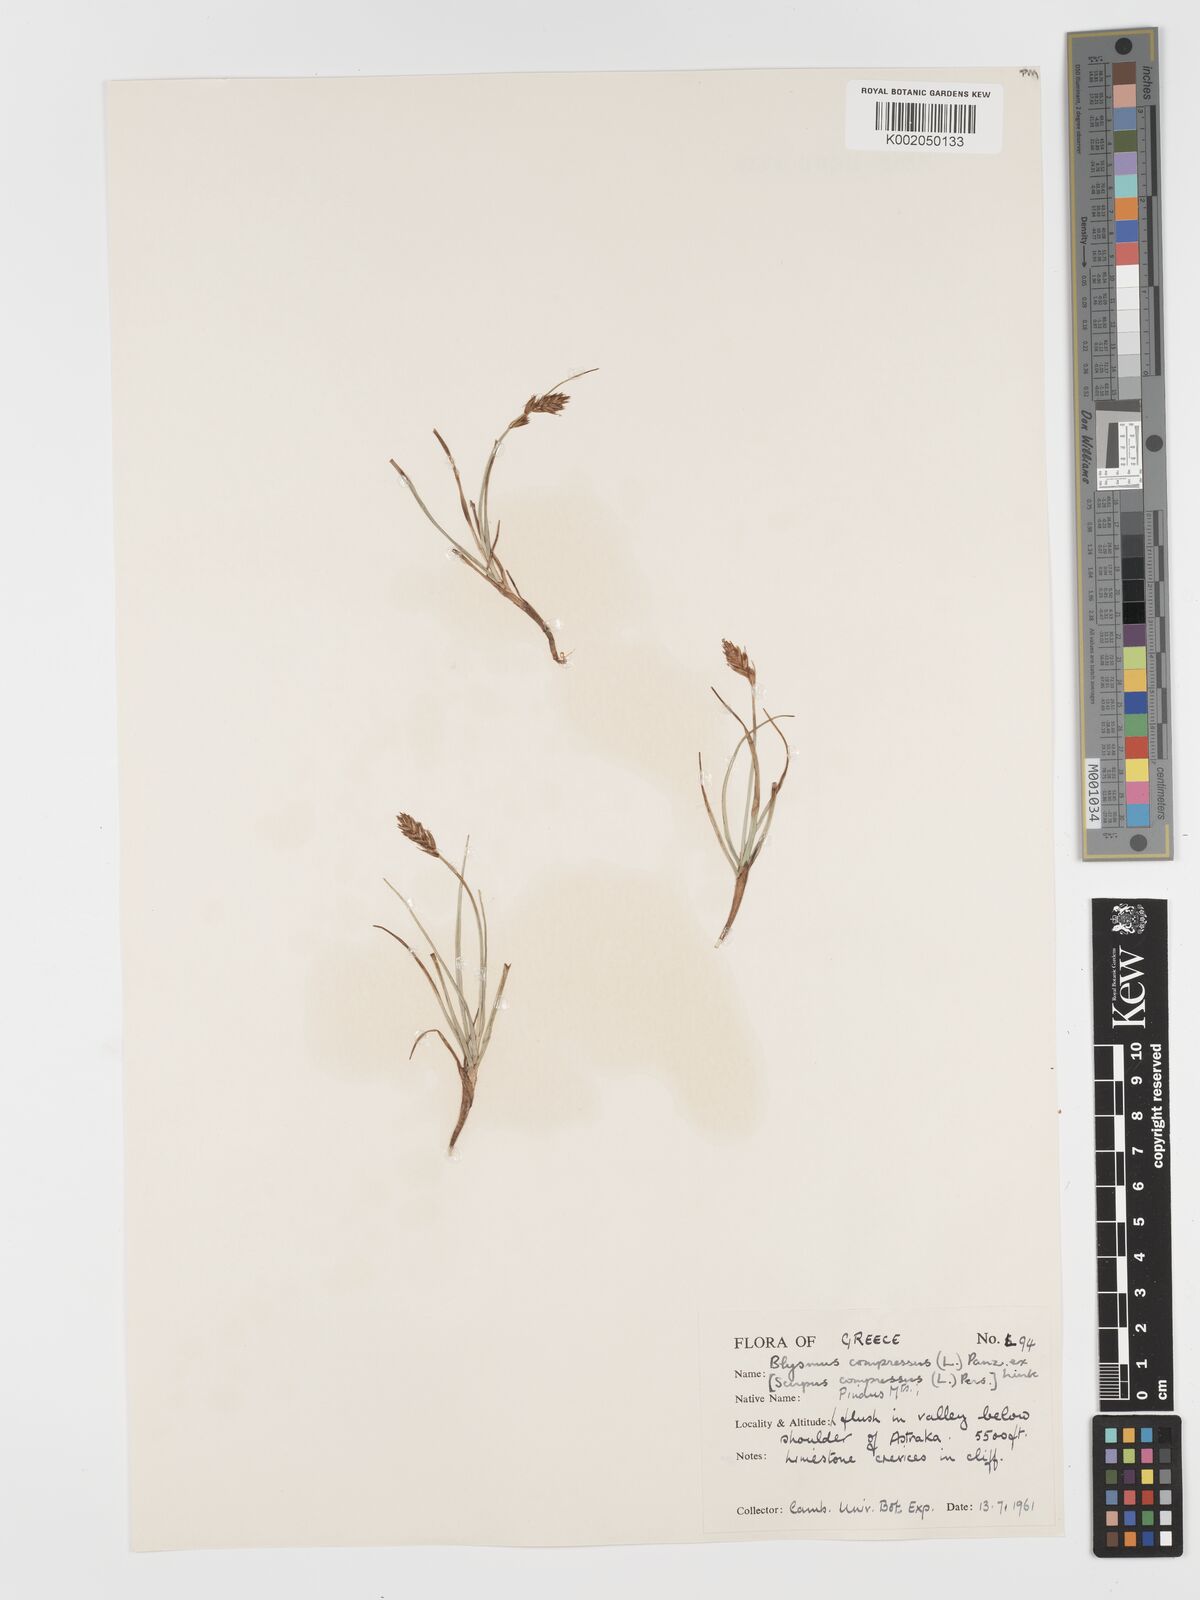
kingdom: Plantae
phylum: Tracheophyta
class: Liliopsida
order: Poales
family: Cyperaceae
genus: Blysmus
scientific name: Blysmus compressus
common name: Flat-sedge
